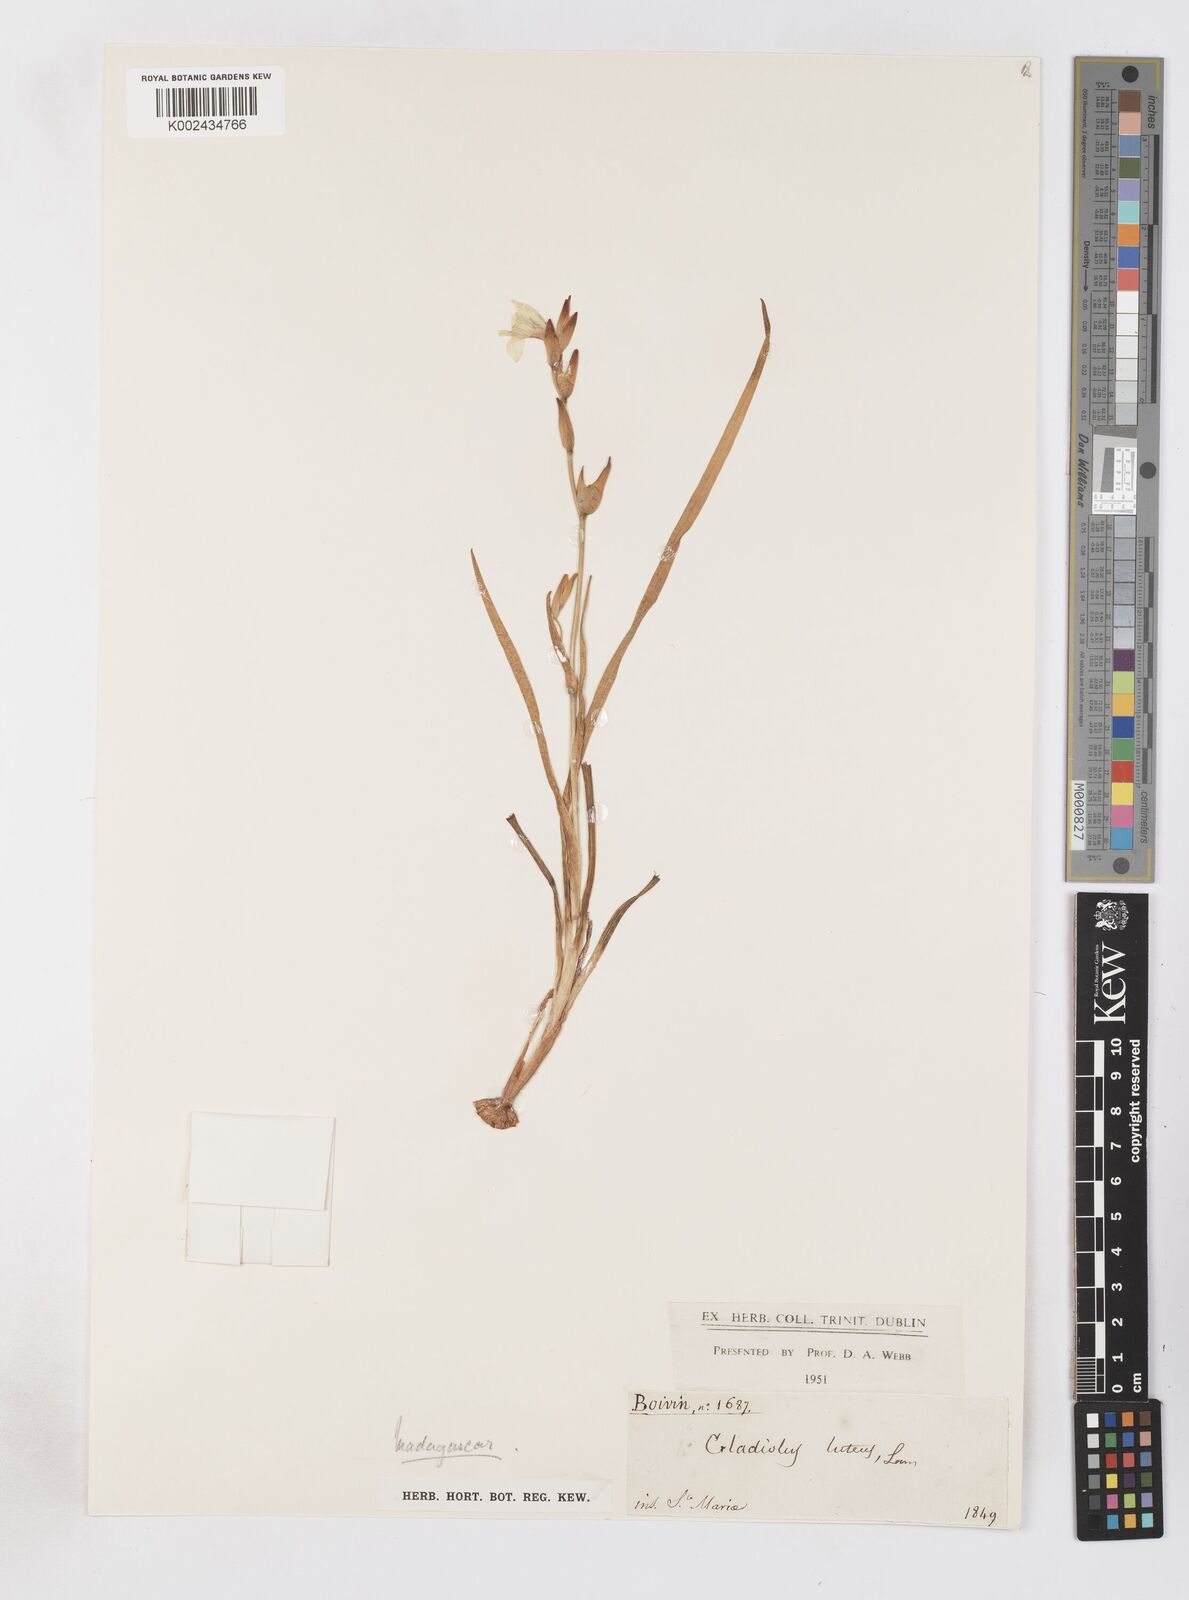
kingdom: Plantae
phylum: Tracheophyta
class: Liliopsida
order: Asparagales
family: Iridaceae
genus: Gladiolus
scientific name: Gladiolus luteus
